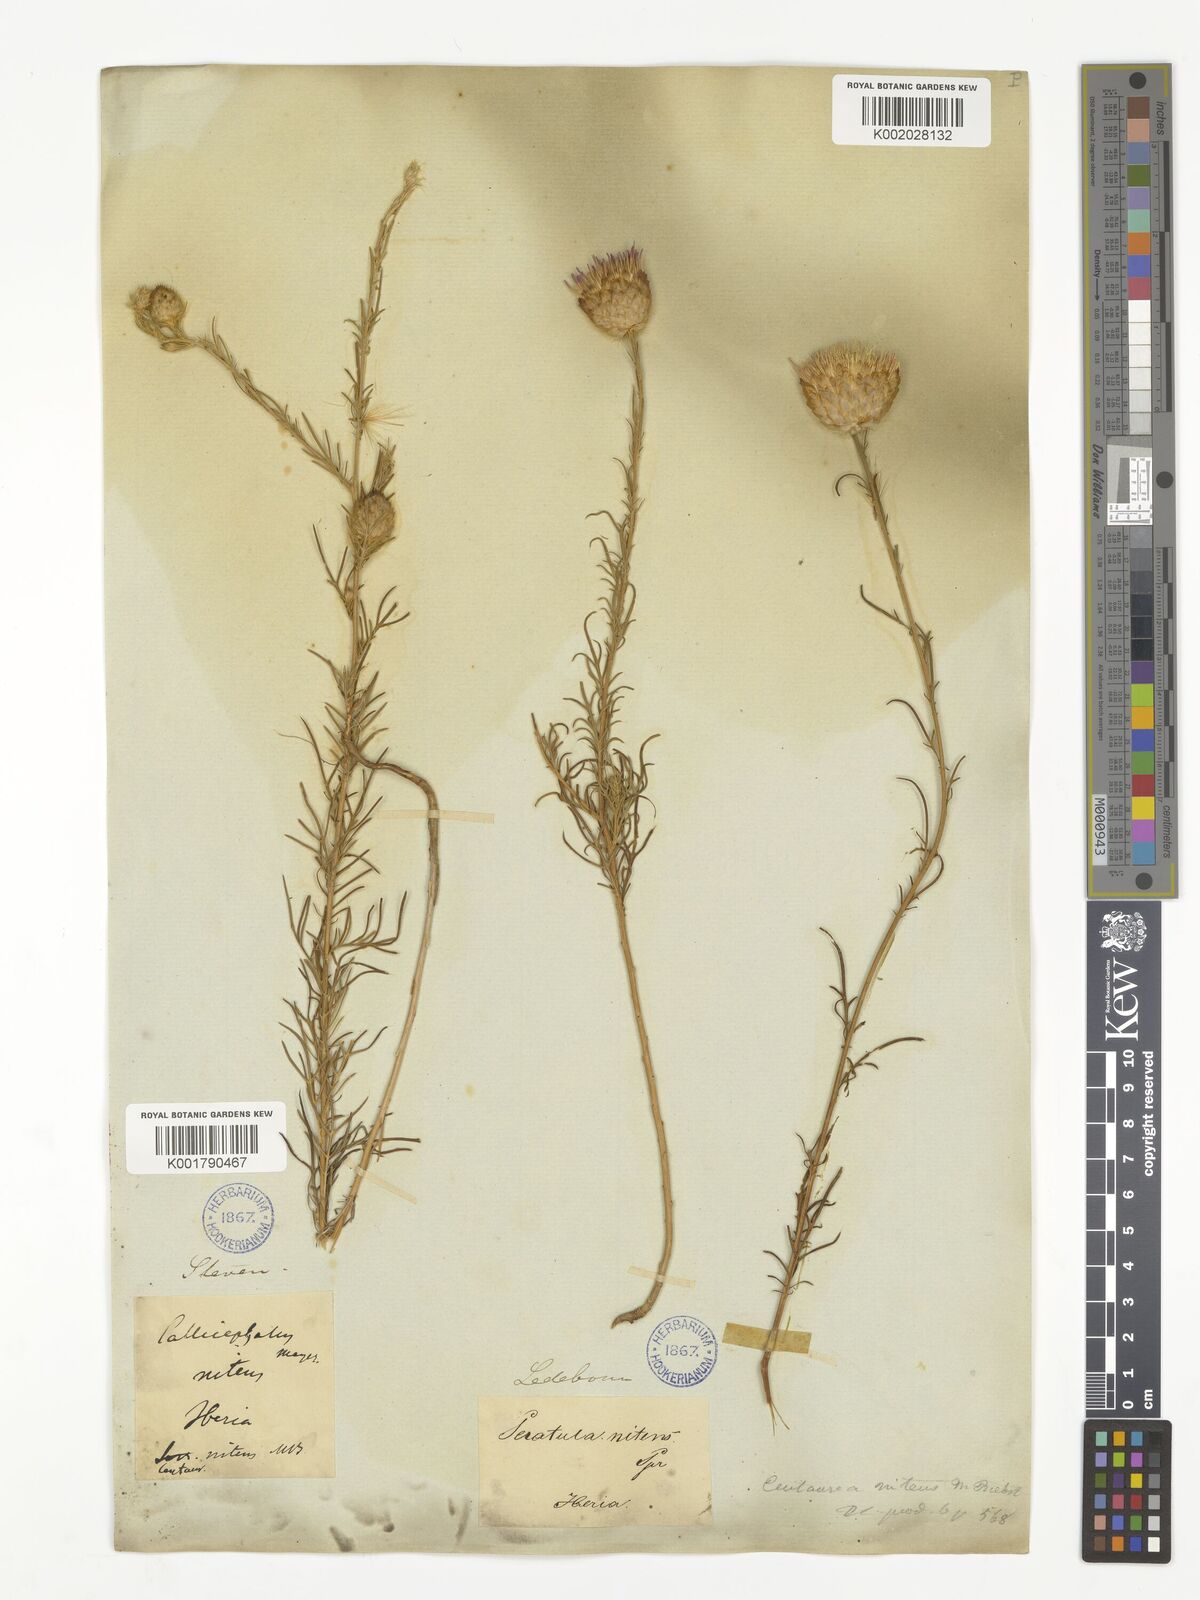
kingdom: Plantae
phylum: Tracheophyta
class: Magnoliopsida
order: Asterales
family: Asteraceae
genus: Callicephalus
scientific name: Callicephalus nitens
